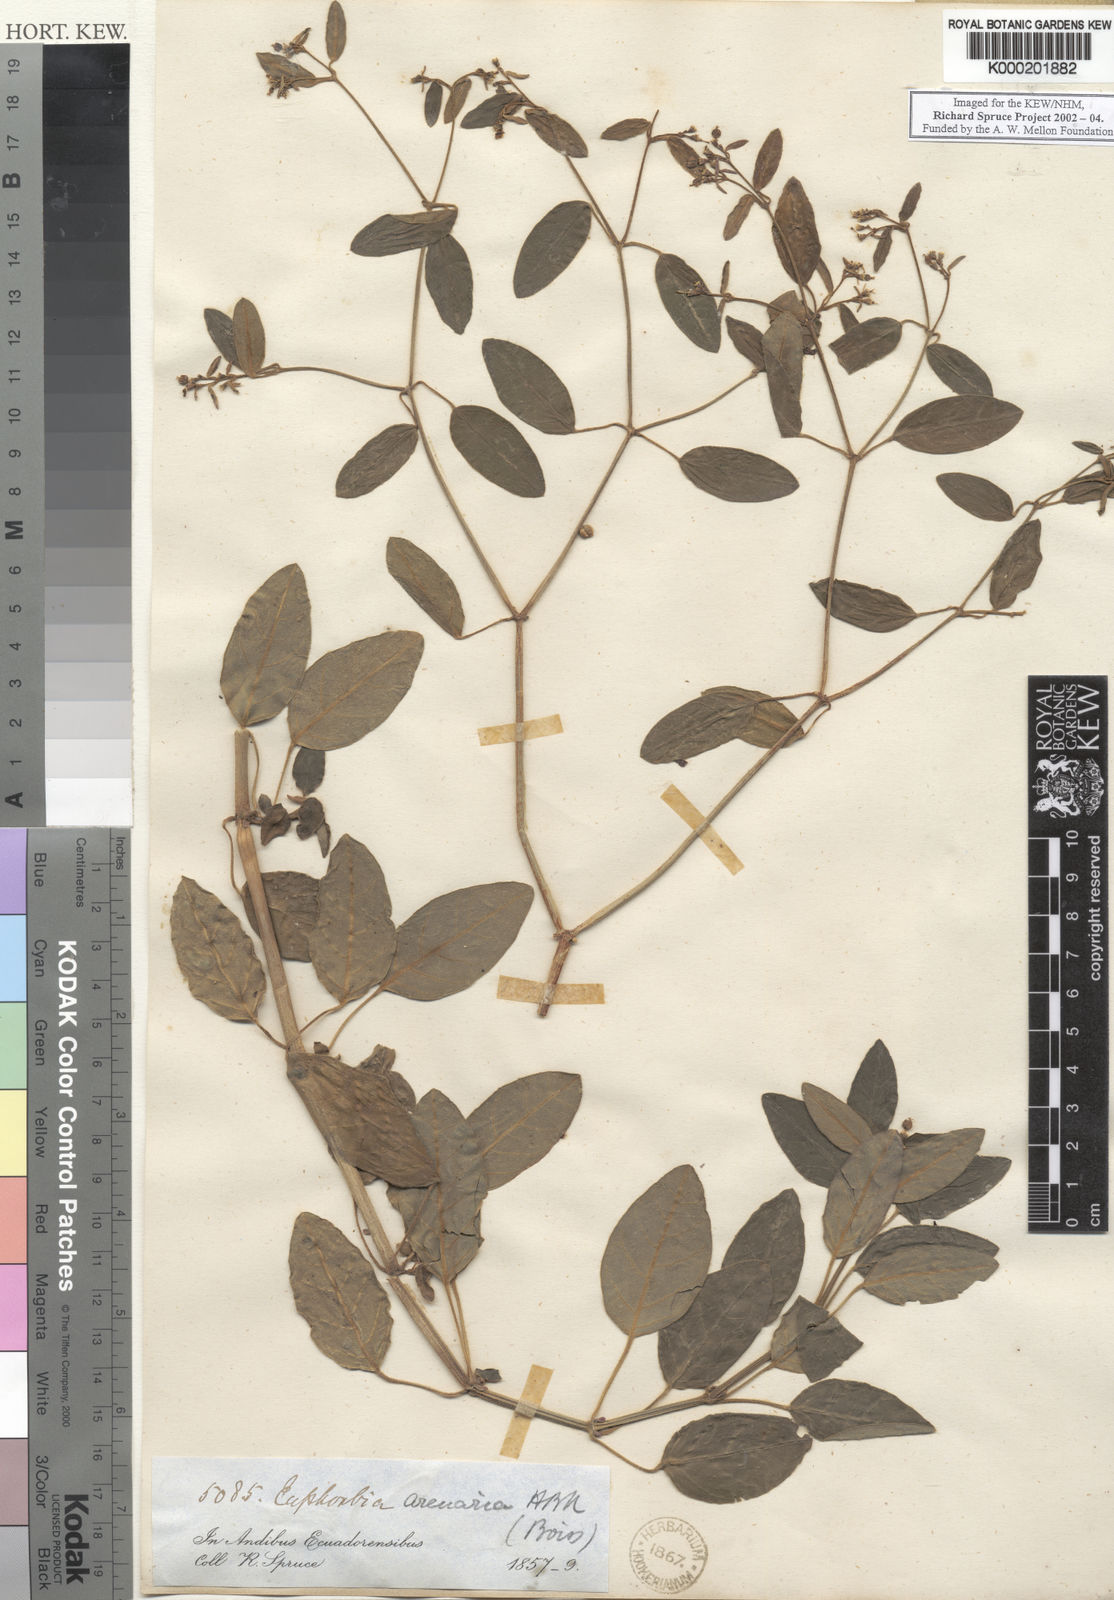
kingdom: Plantae
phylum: Tracheophyta
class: Magnoliopsida
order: Malpighiales
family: Euphorbiaceae
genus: Euphorbia
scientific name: Euphorbia arenaria
